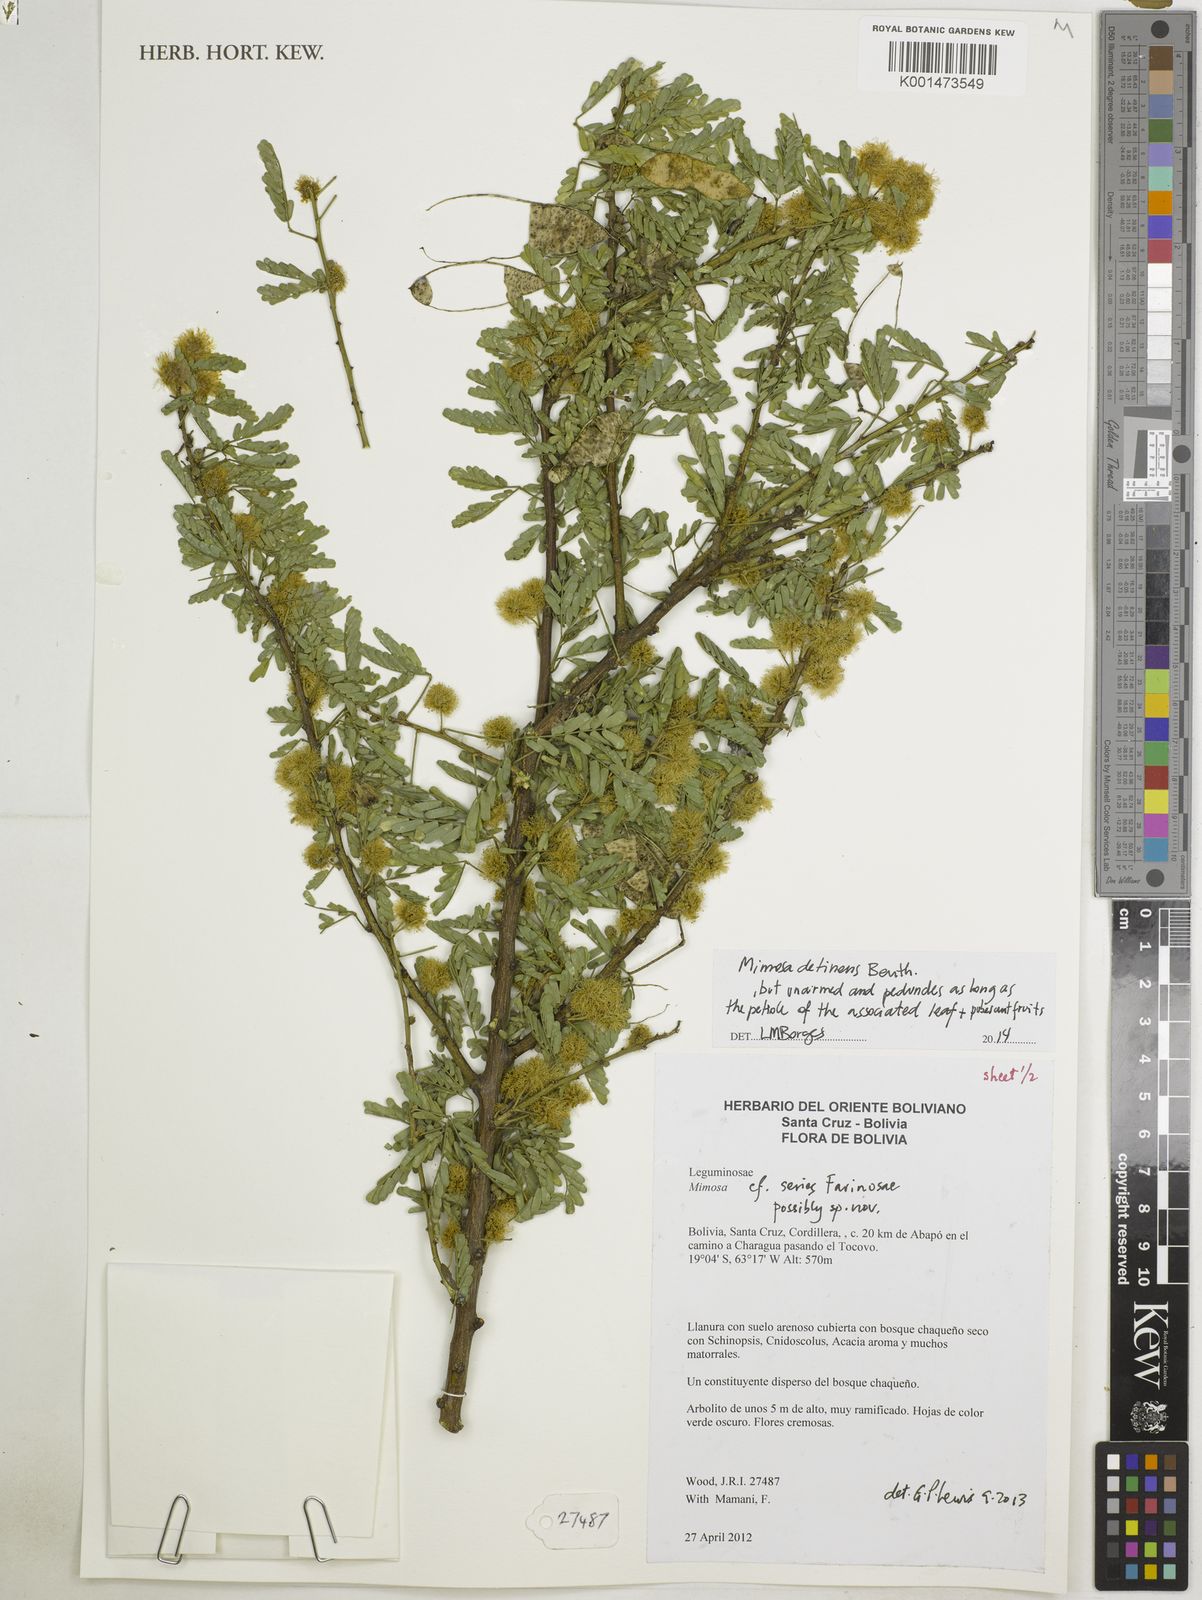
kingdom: Plantae
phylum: Tracheophyta
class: Magnoliopsida
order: Fabales
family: Fabaceae
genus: Mimosa
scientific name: Mimosa detinens
